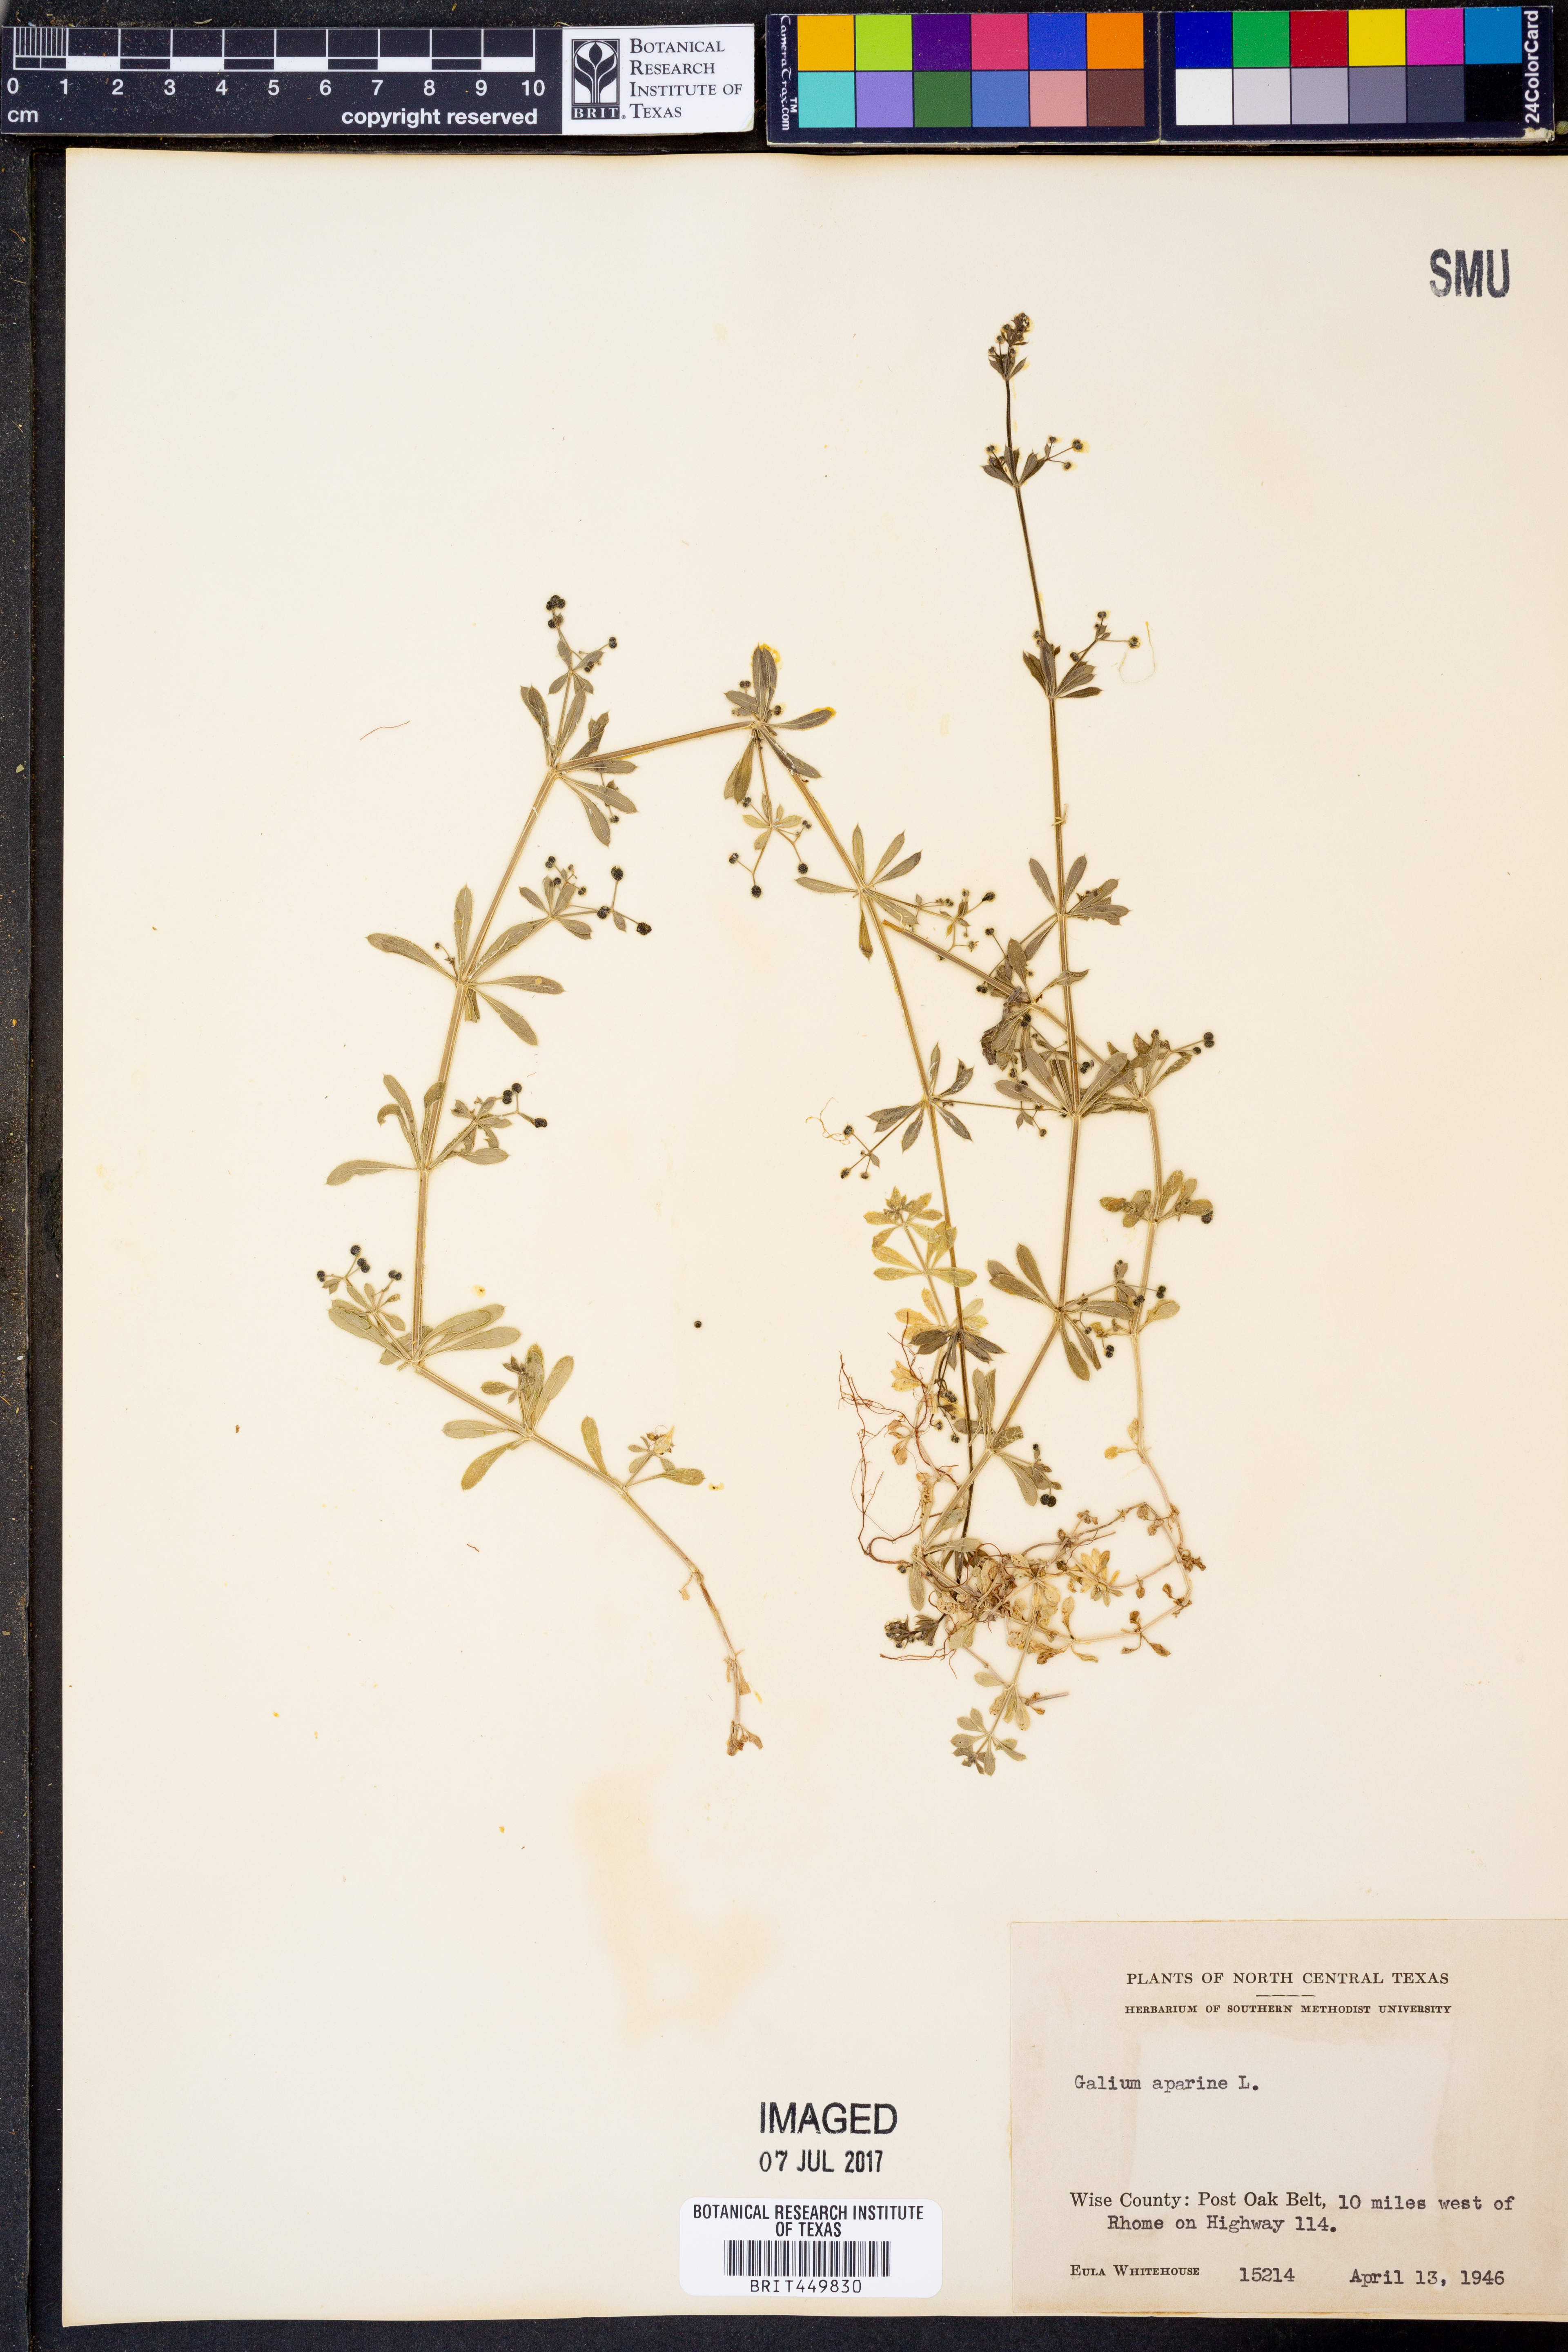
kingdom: Plantae
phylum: Tracheophyta
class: Magnoliopsida
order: Gentianales
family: Rubiaceae
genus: Galium
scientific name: Galium aparine
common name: Cleavers
